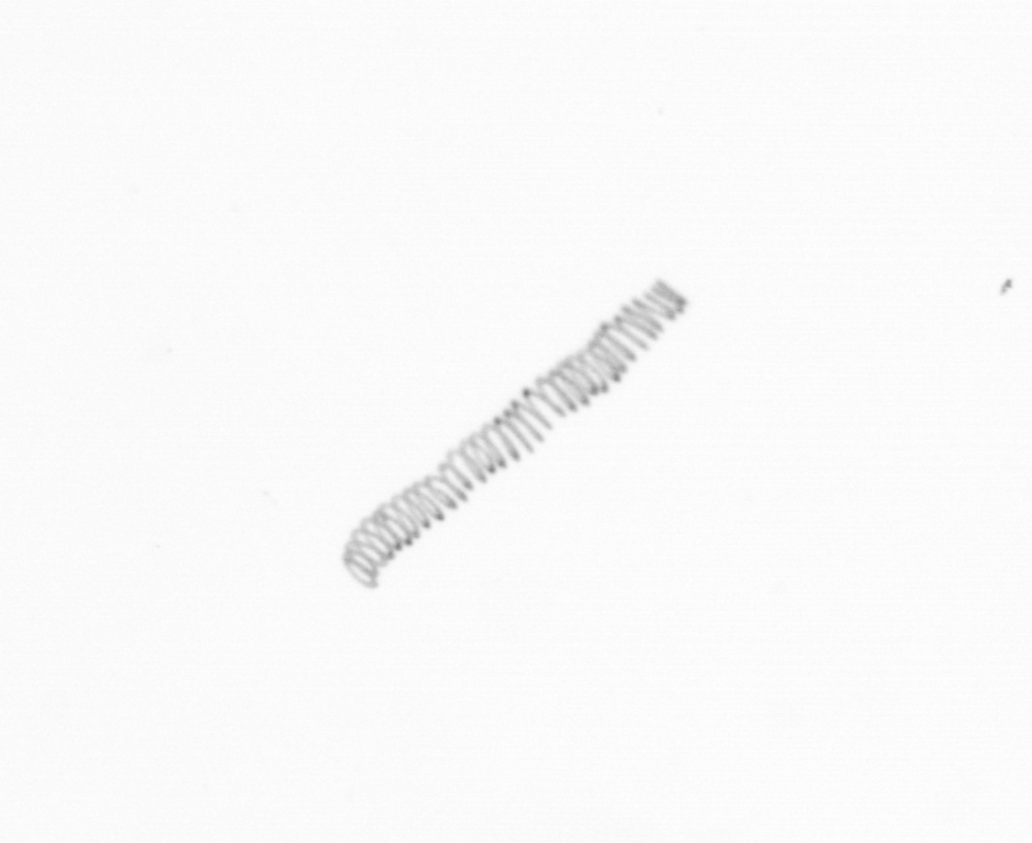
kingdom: Chromista
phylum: Ochrophyta
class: Bacillariophyceae
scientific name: Bacillariophyceae
